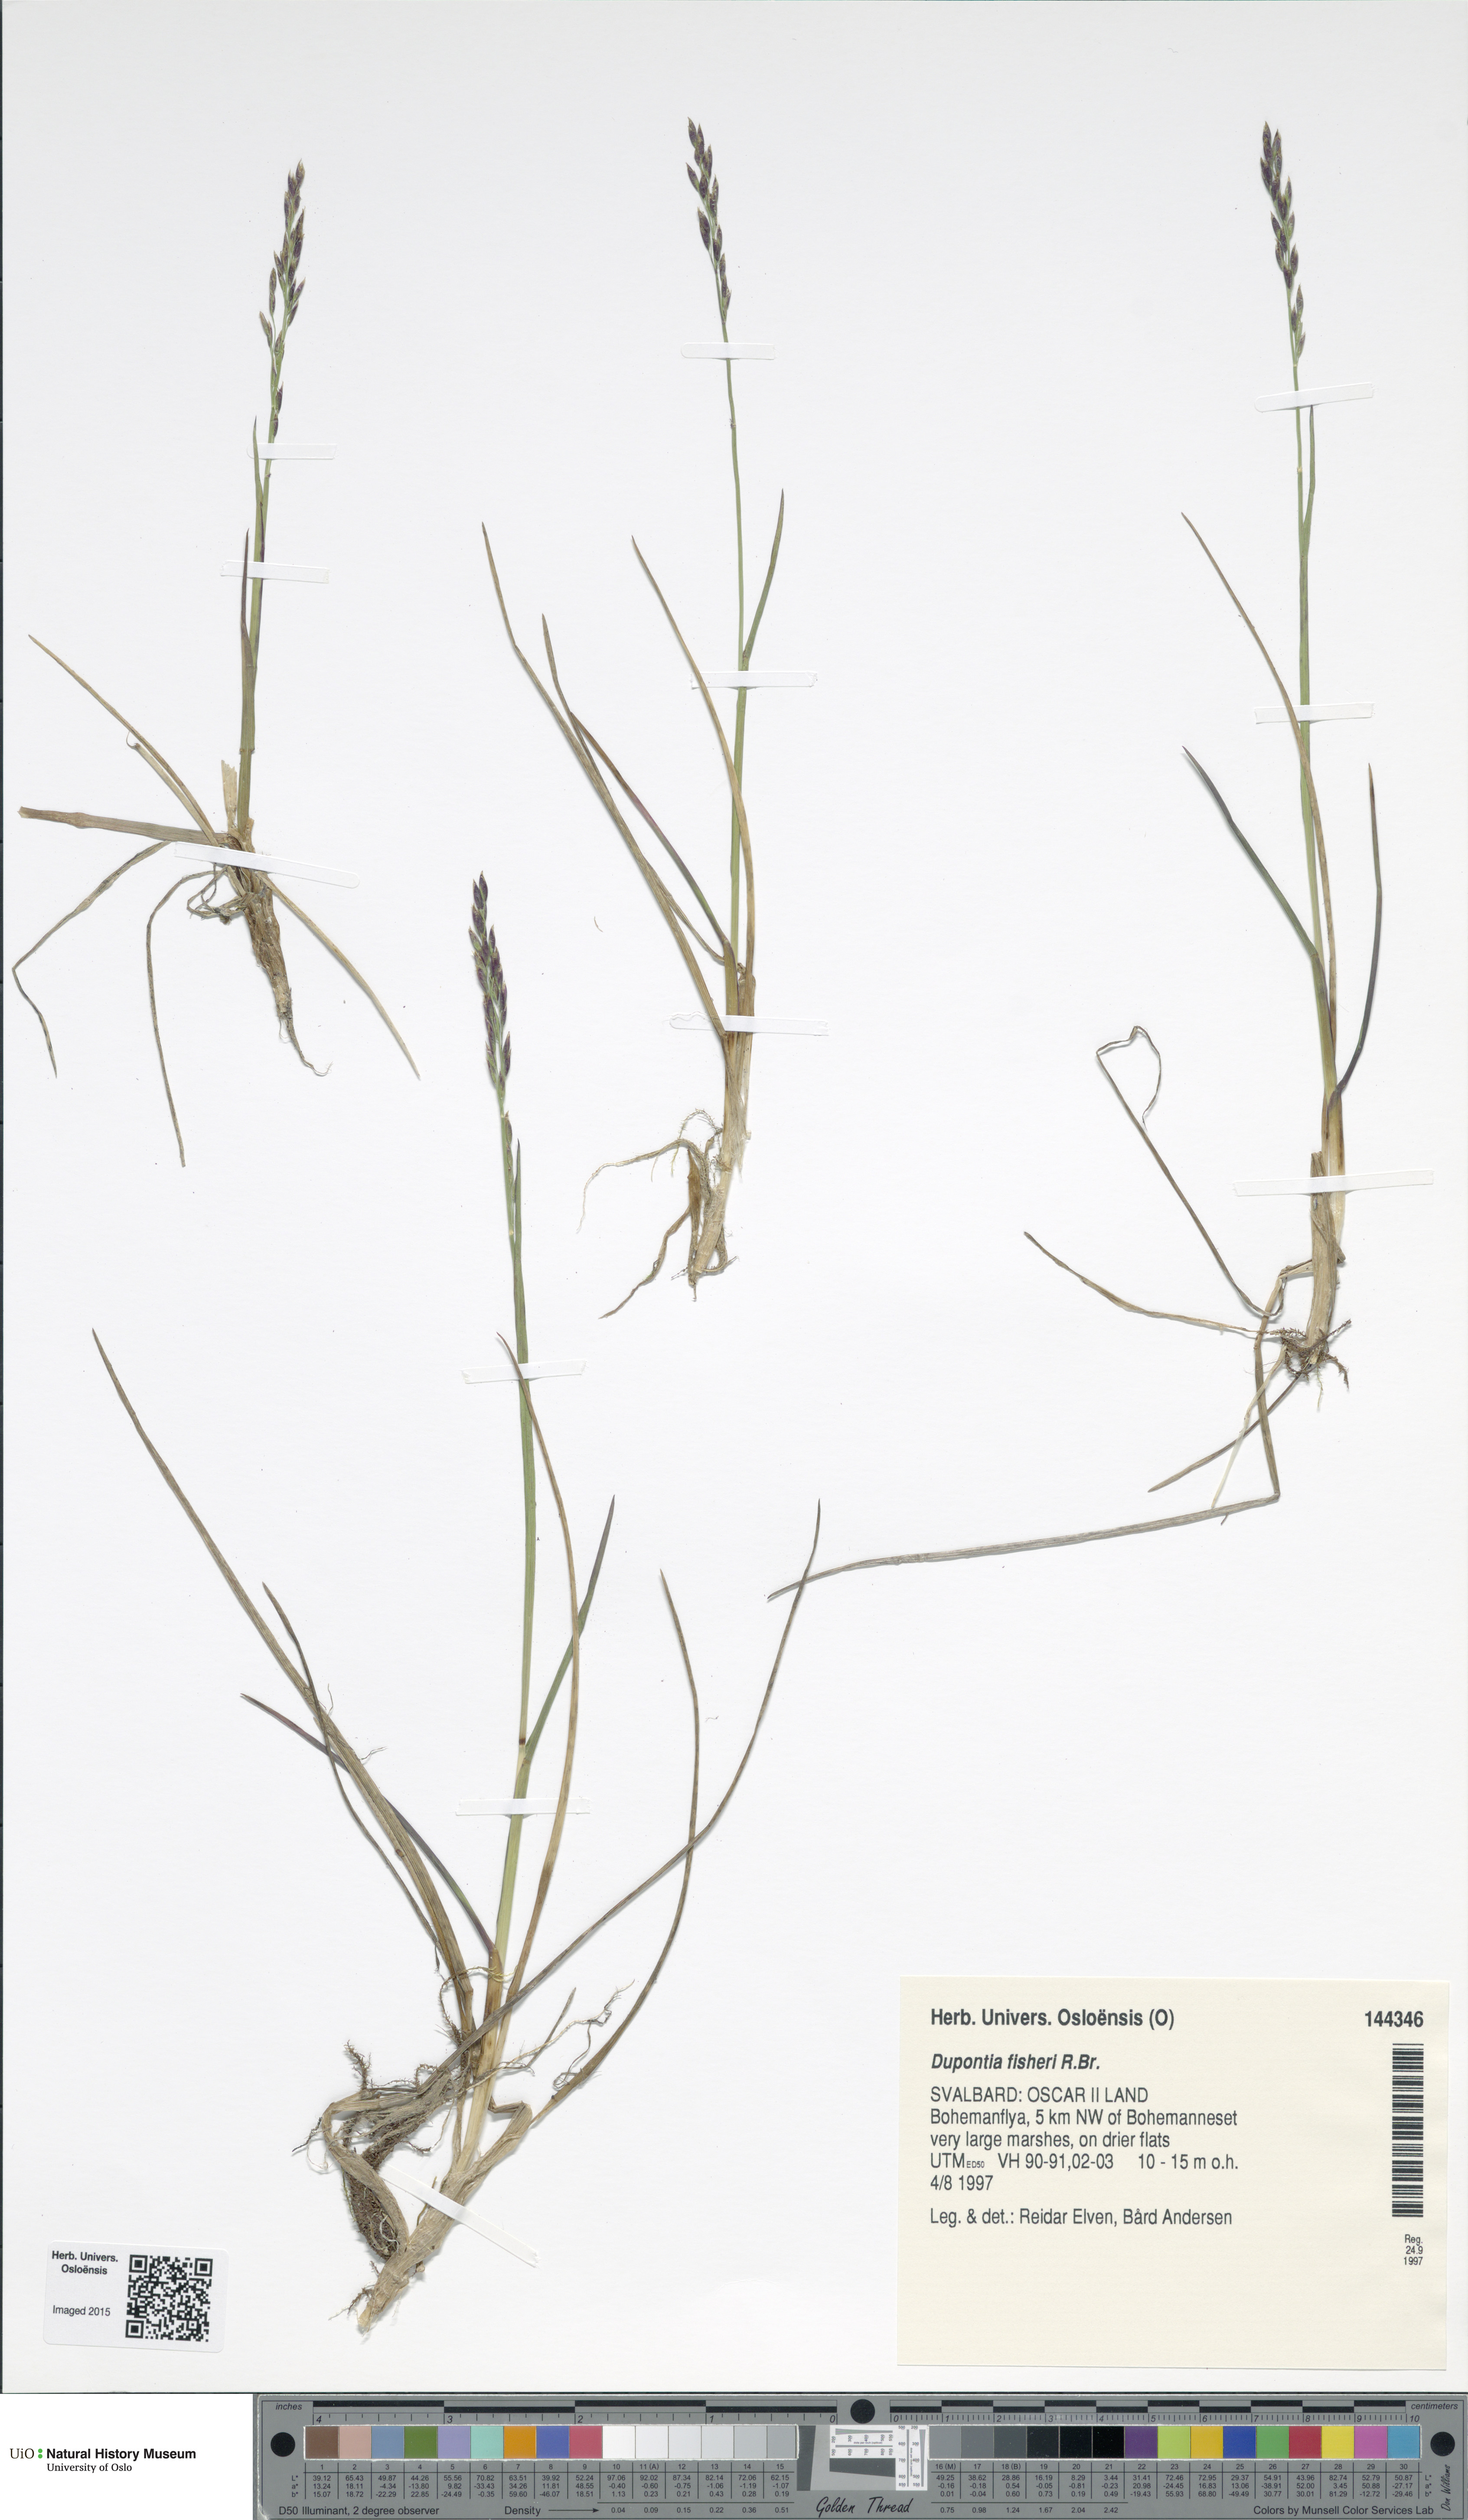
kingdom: Plantae
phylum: Tracheophyta
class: Liliopsida
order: Poales
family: Poaceae
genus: Dupontia
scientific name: Dupontia fisheri
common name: Tundra grass
